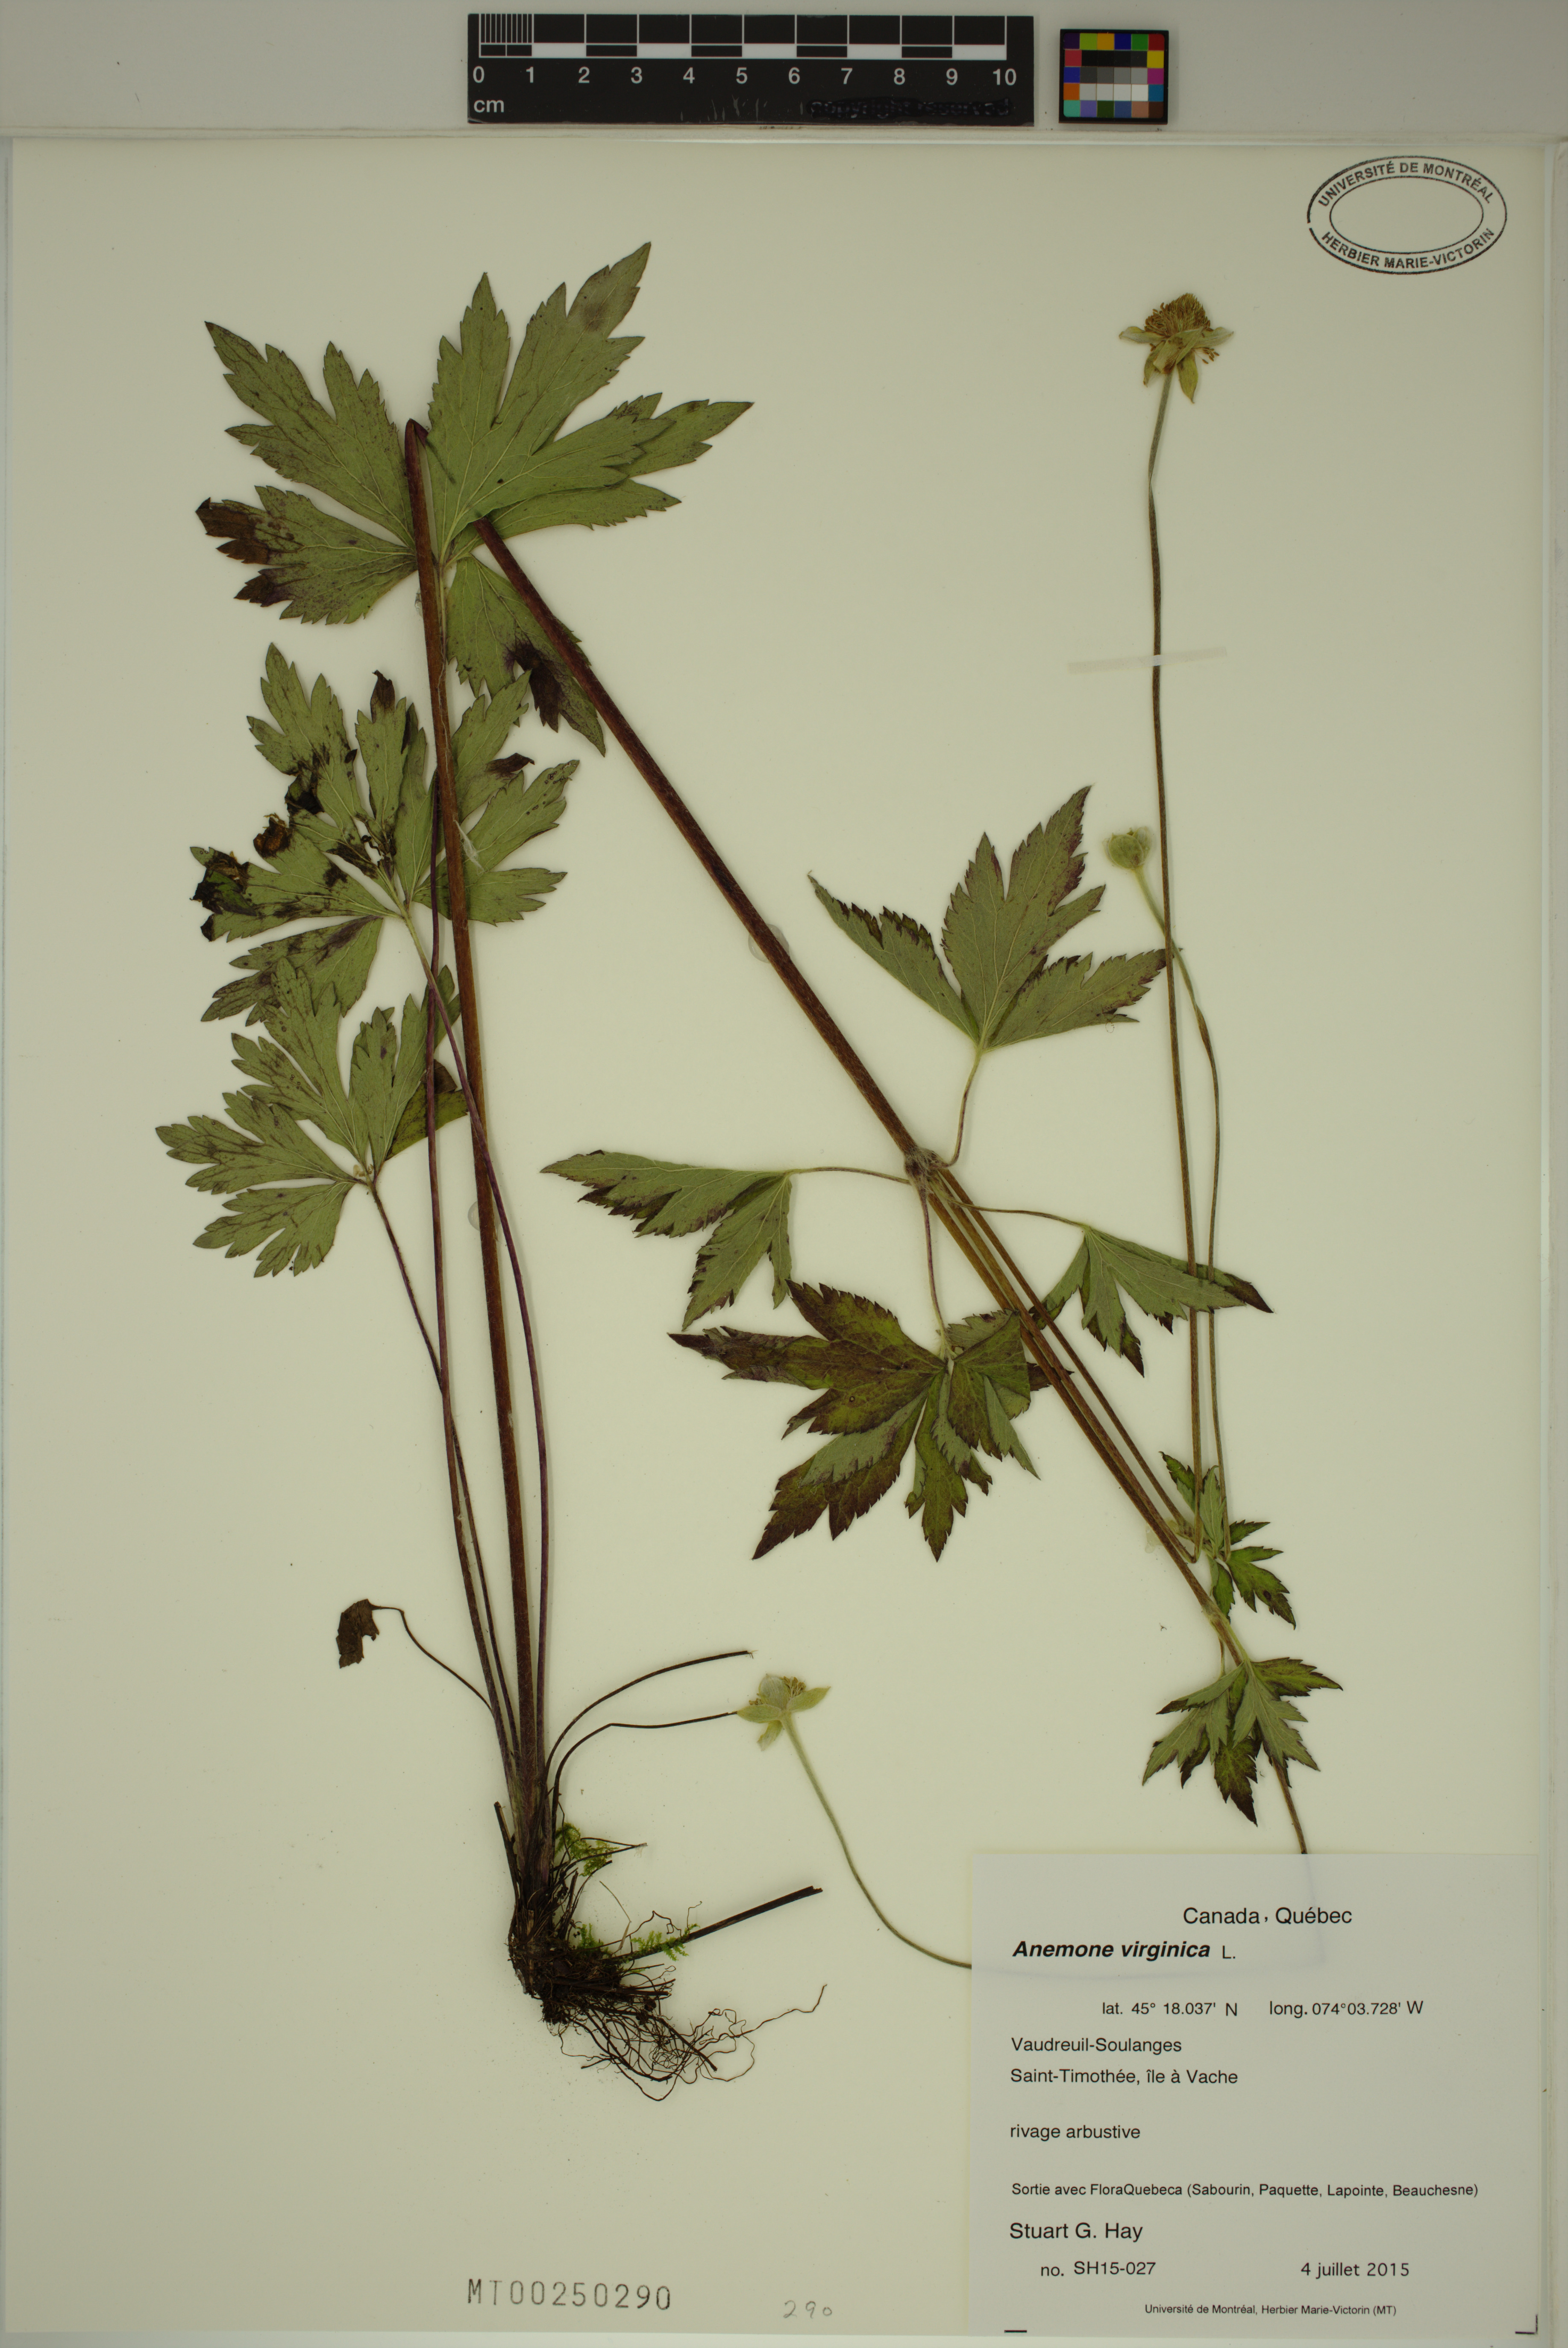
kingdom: Plantae
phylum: Tracheophyta
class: Magnoliopsida
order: Ranunculales
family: Ranunculaceae
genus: Anemone
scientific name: Anemone virginiana
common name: Tall anemone
